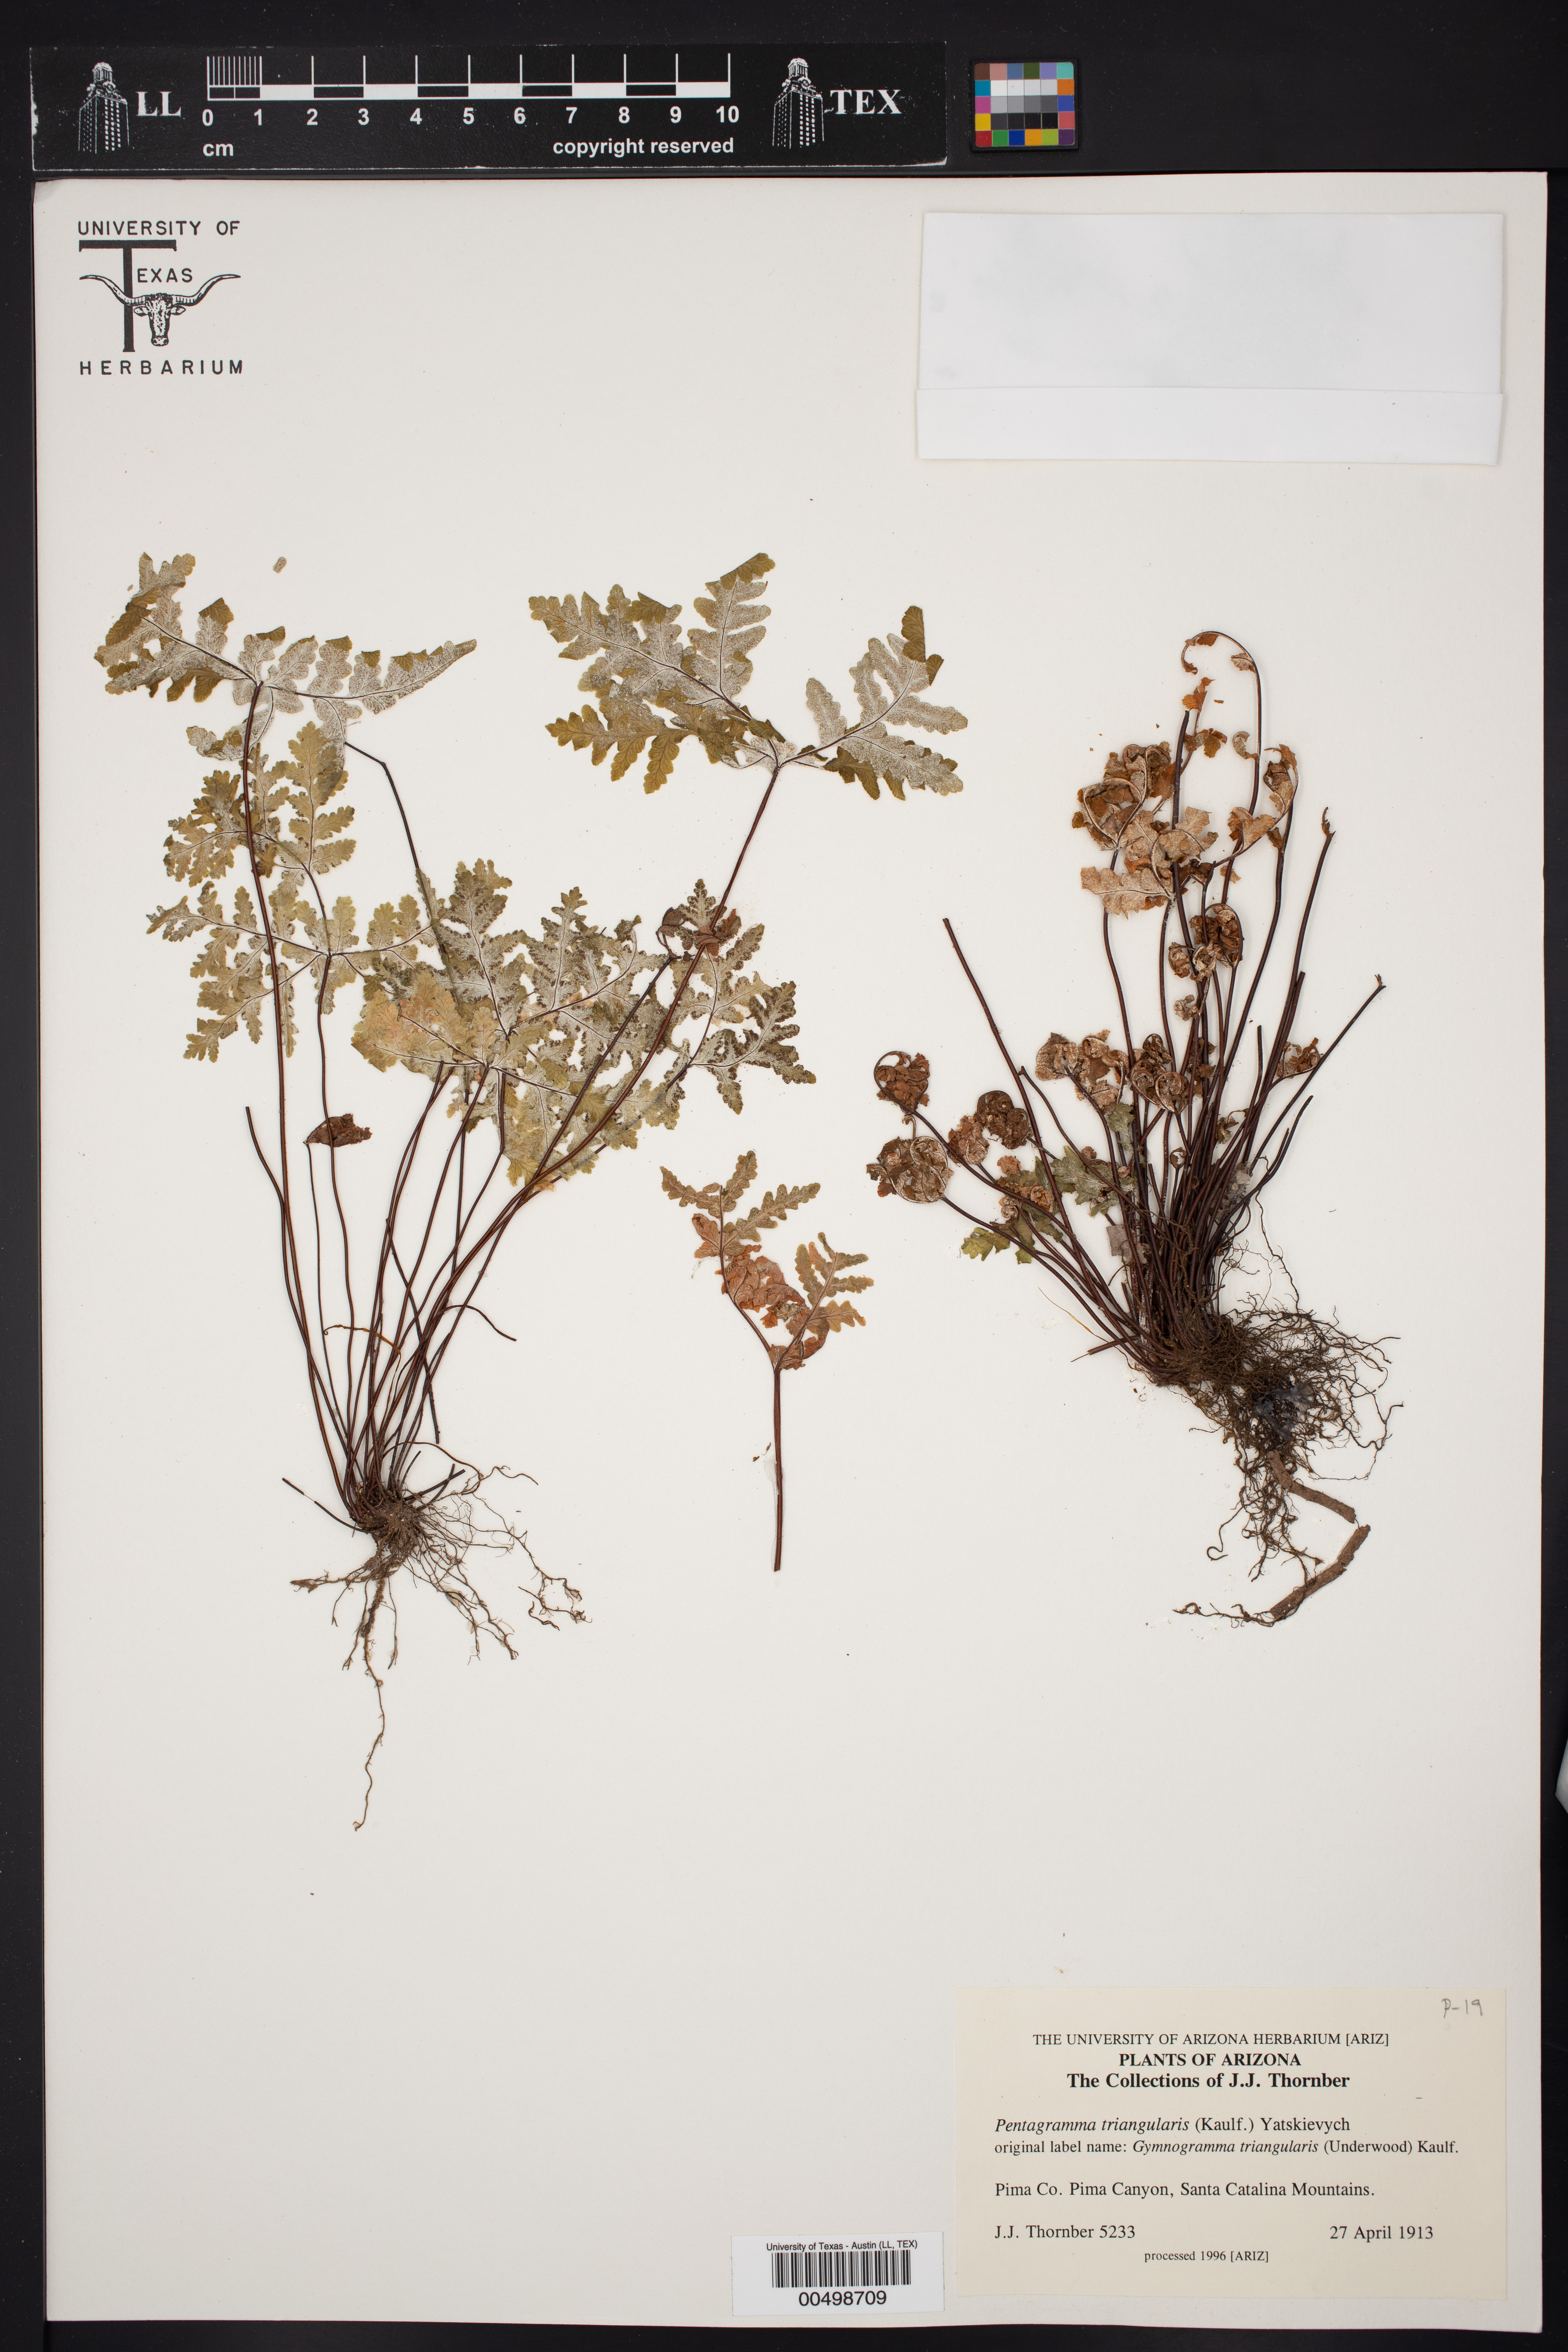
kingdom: Plantae
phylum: Tracheophyta
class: Polypodiopsida
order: Polypodiales
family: Pteridaceae
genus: Pentagramma
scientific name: Pentagramma triangularis
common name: Gold fern
